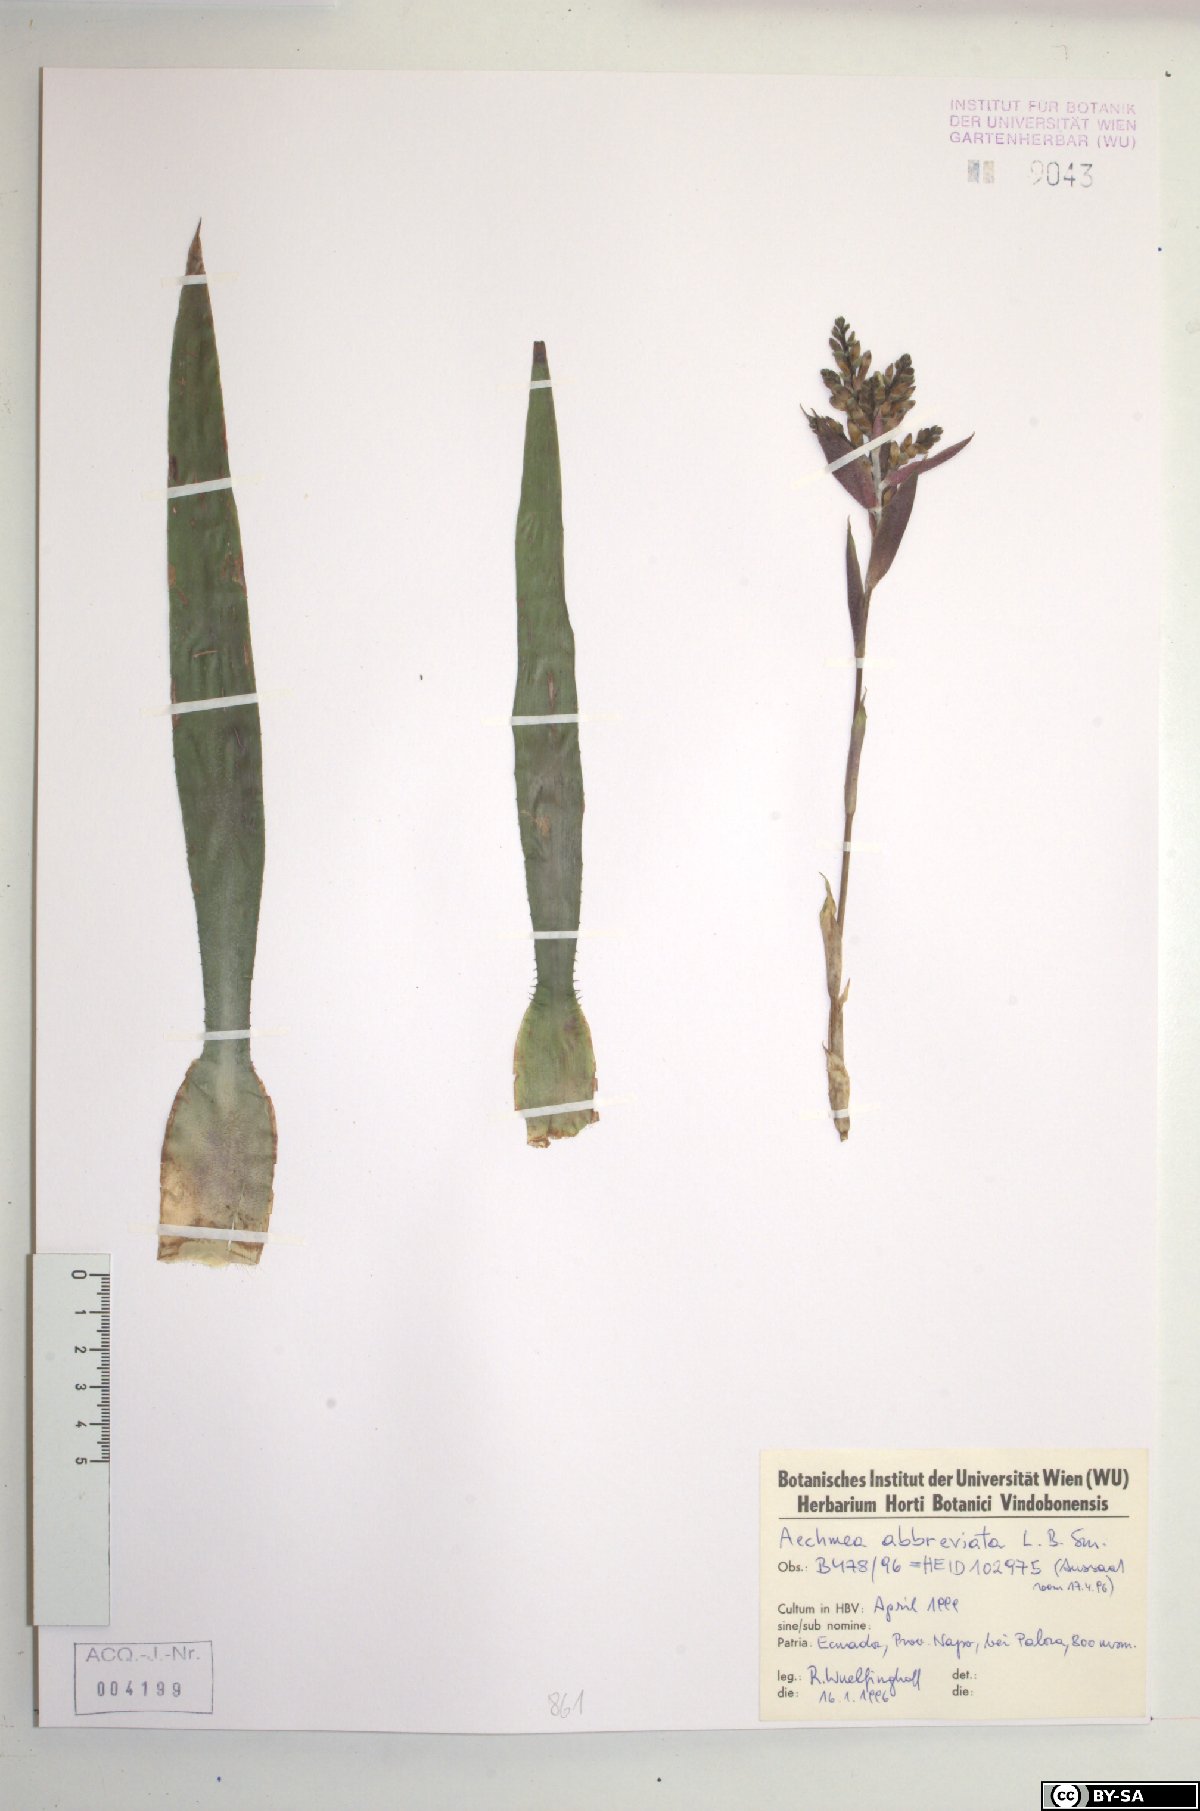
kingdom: Plantae
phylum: Tracheophyta
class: Liliopsida
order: Poales
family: Bromeliaceae
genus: Aechmea
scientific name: Aechmea abbreviata
